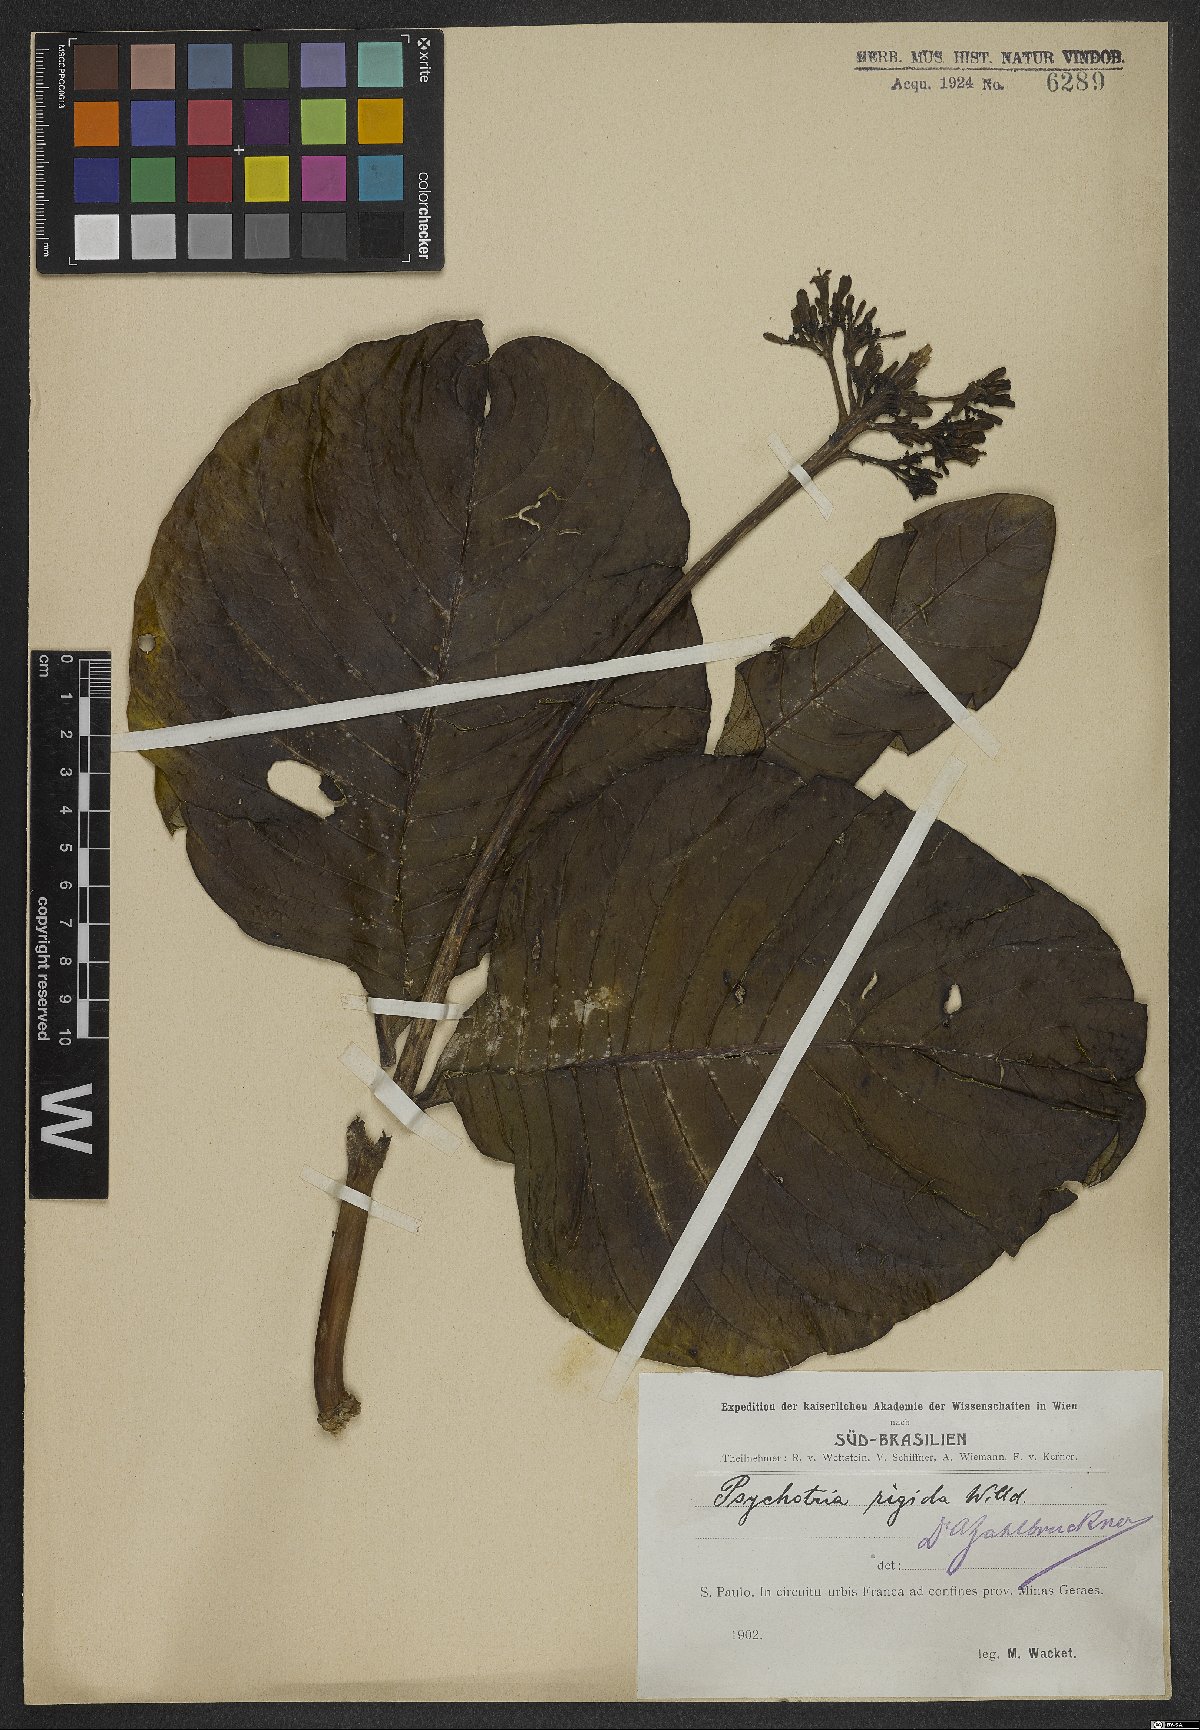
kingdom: Plantae
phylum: Tracheophyta
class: Magnoliopsida
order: Gentianales
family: Rubiaceae
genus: Palicourea
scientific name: Palicourea rigida
